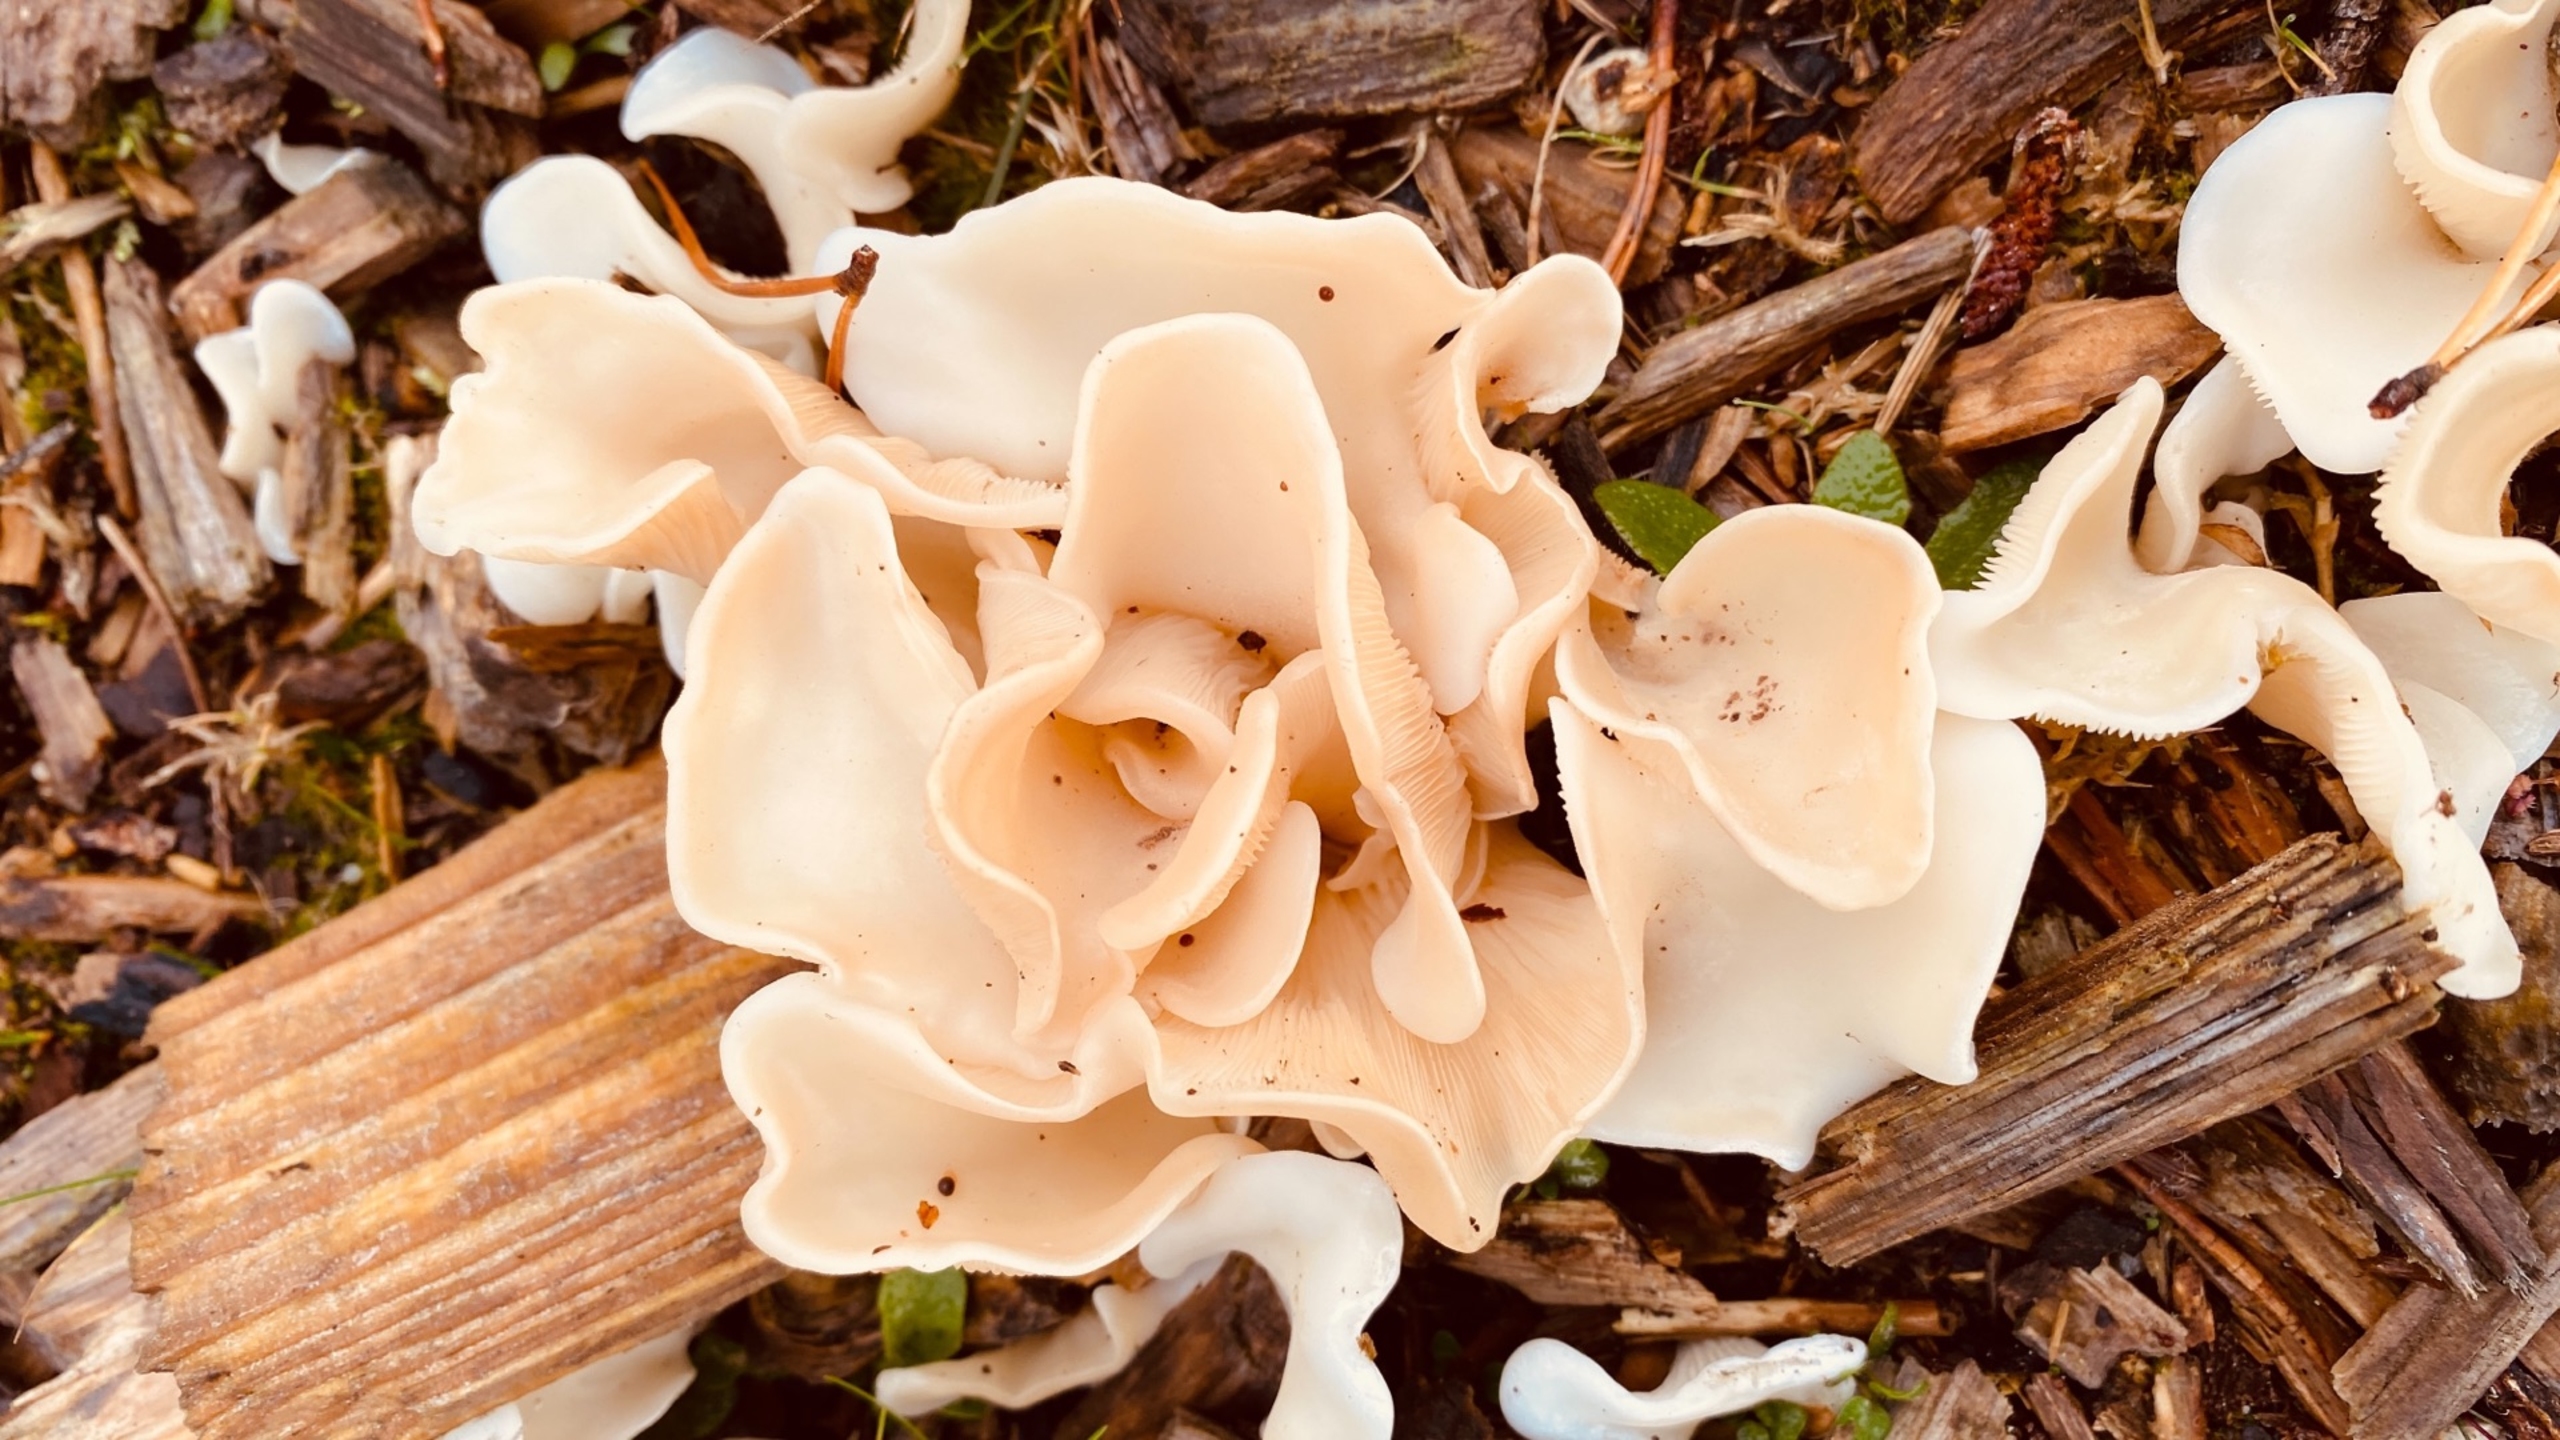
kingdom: Fungi
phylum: Basidiomycota
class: Agaricomycetes
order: Agaricales
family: Marasmiaceae
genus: Pleurocybella
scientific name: Pleurocybella porrigens
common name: Kridthat
